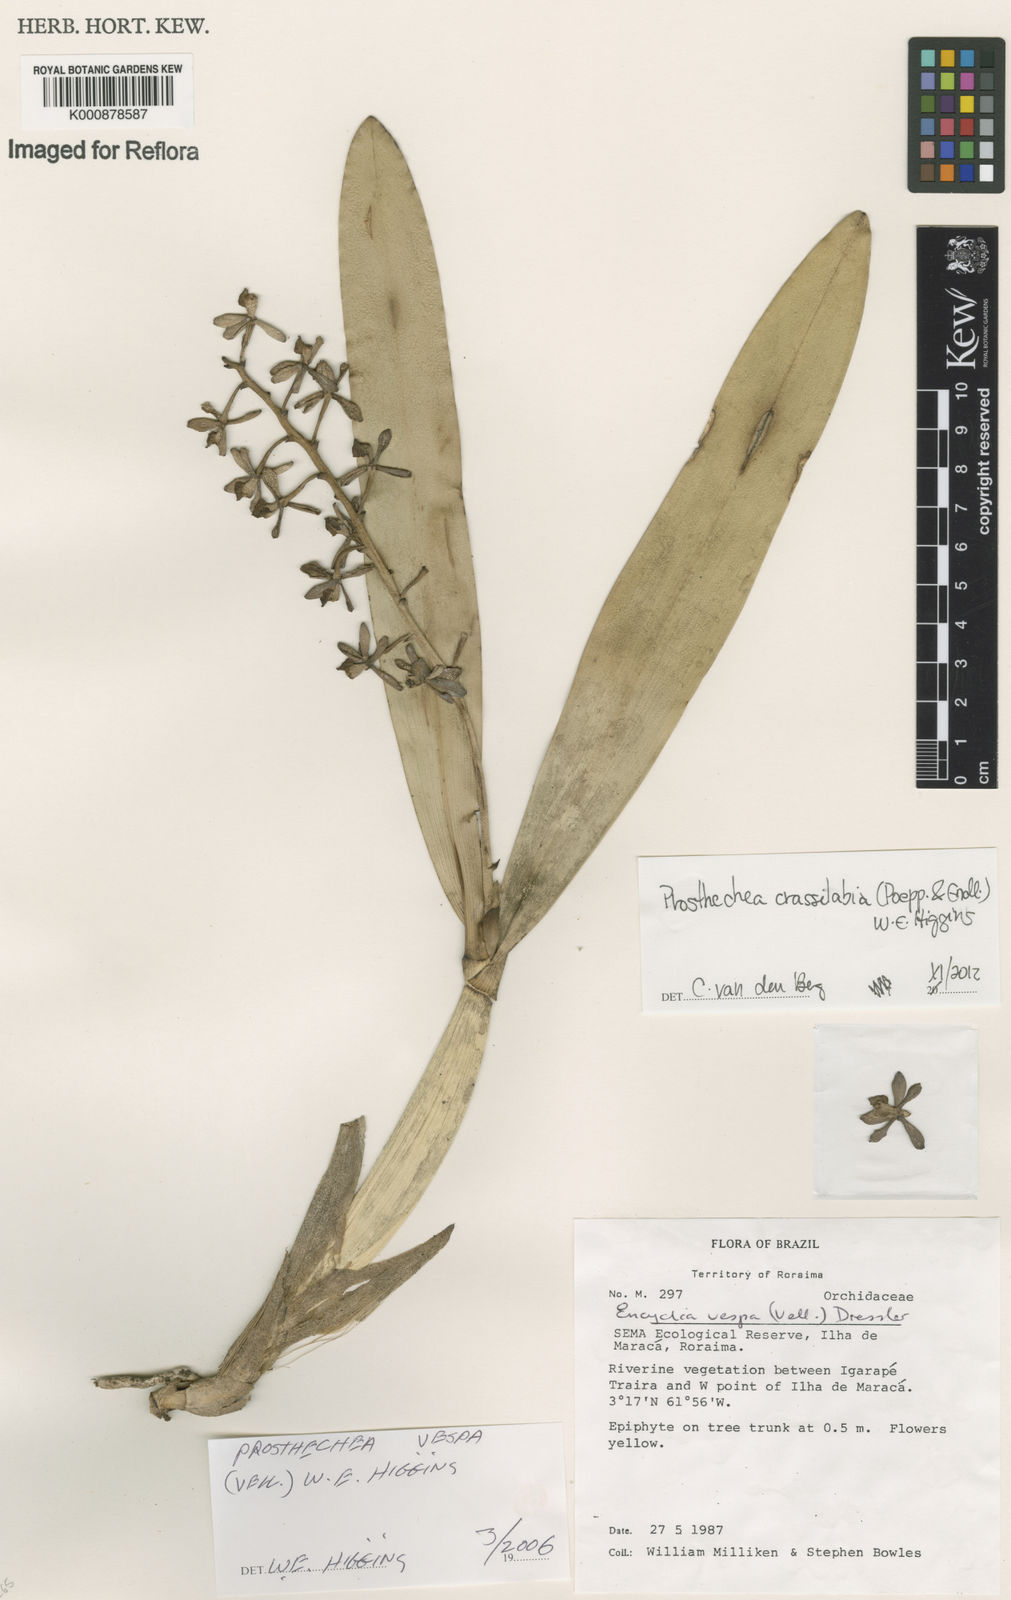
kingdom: Plantae
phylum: Tracheophyta
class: Liliopsida
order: Asparagales
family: Orchidaceae
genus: Prosthechea
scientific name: Prosthechea
